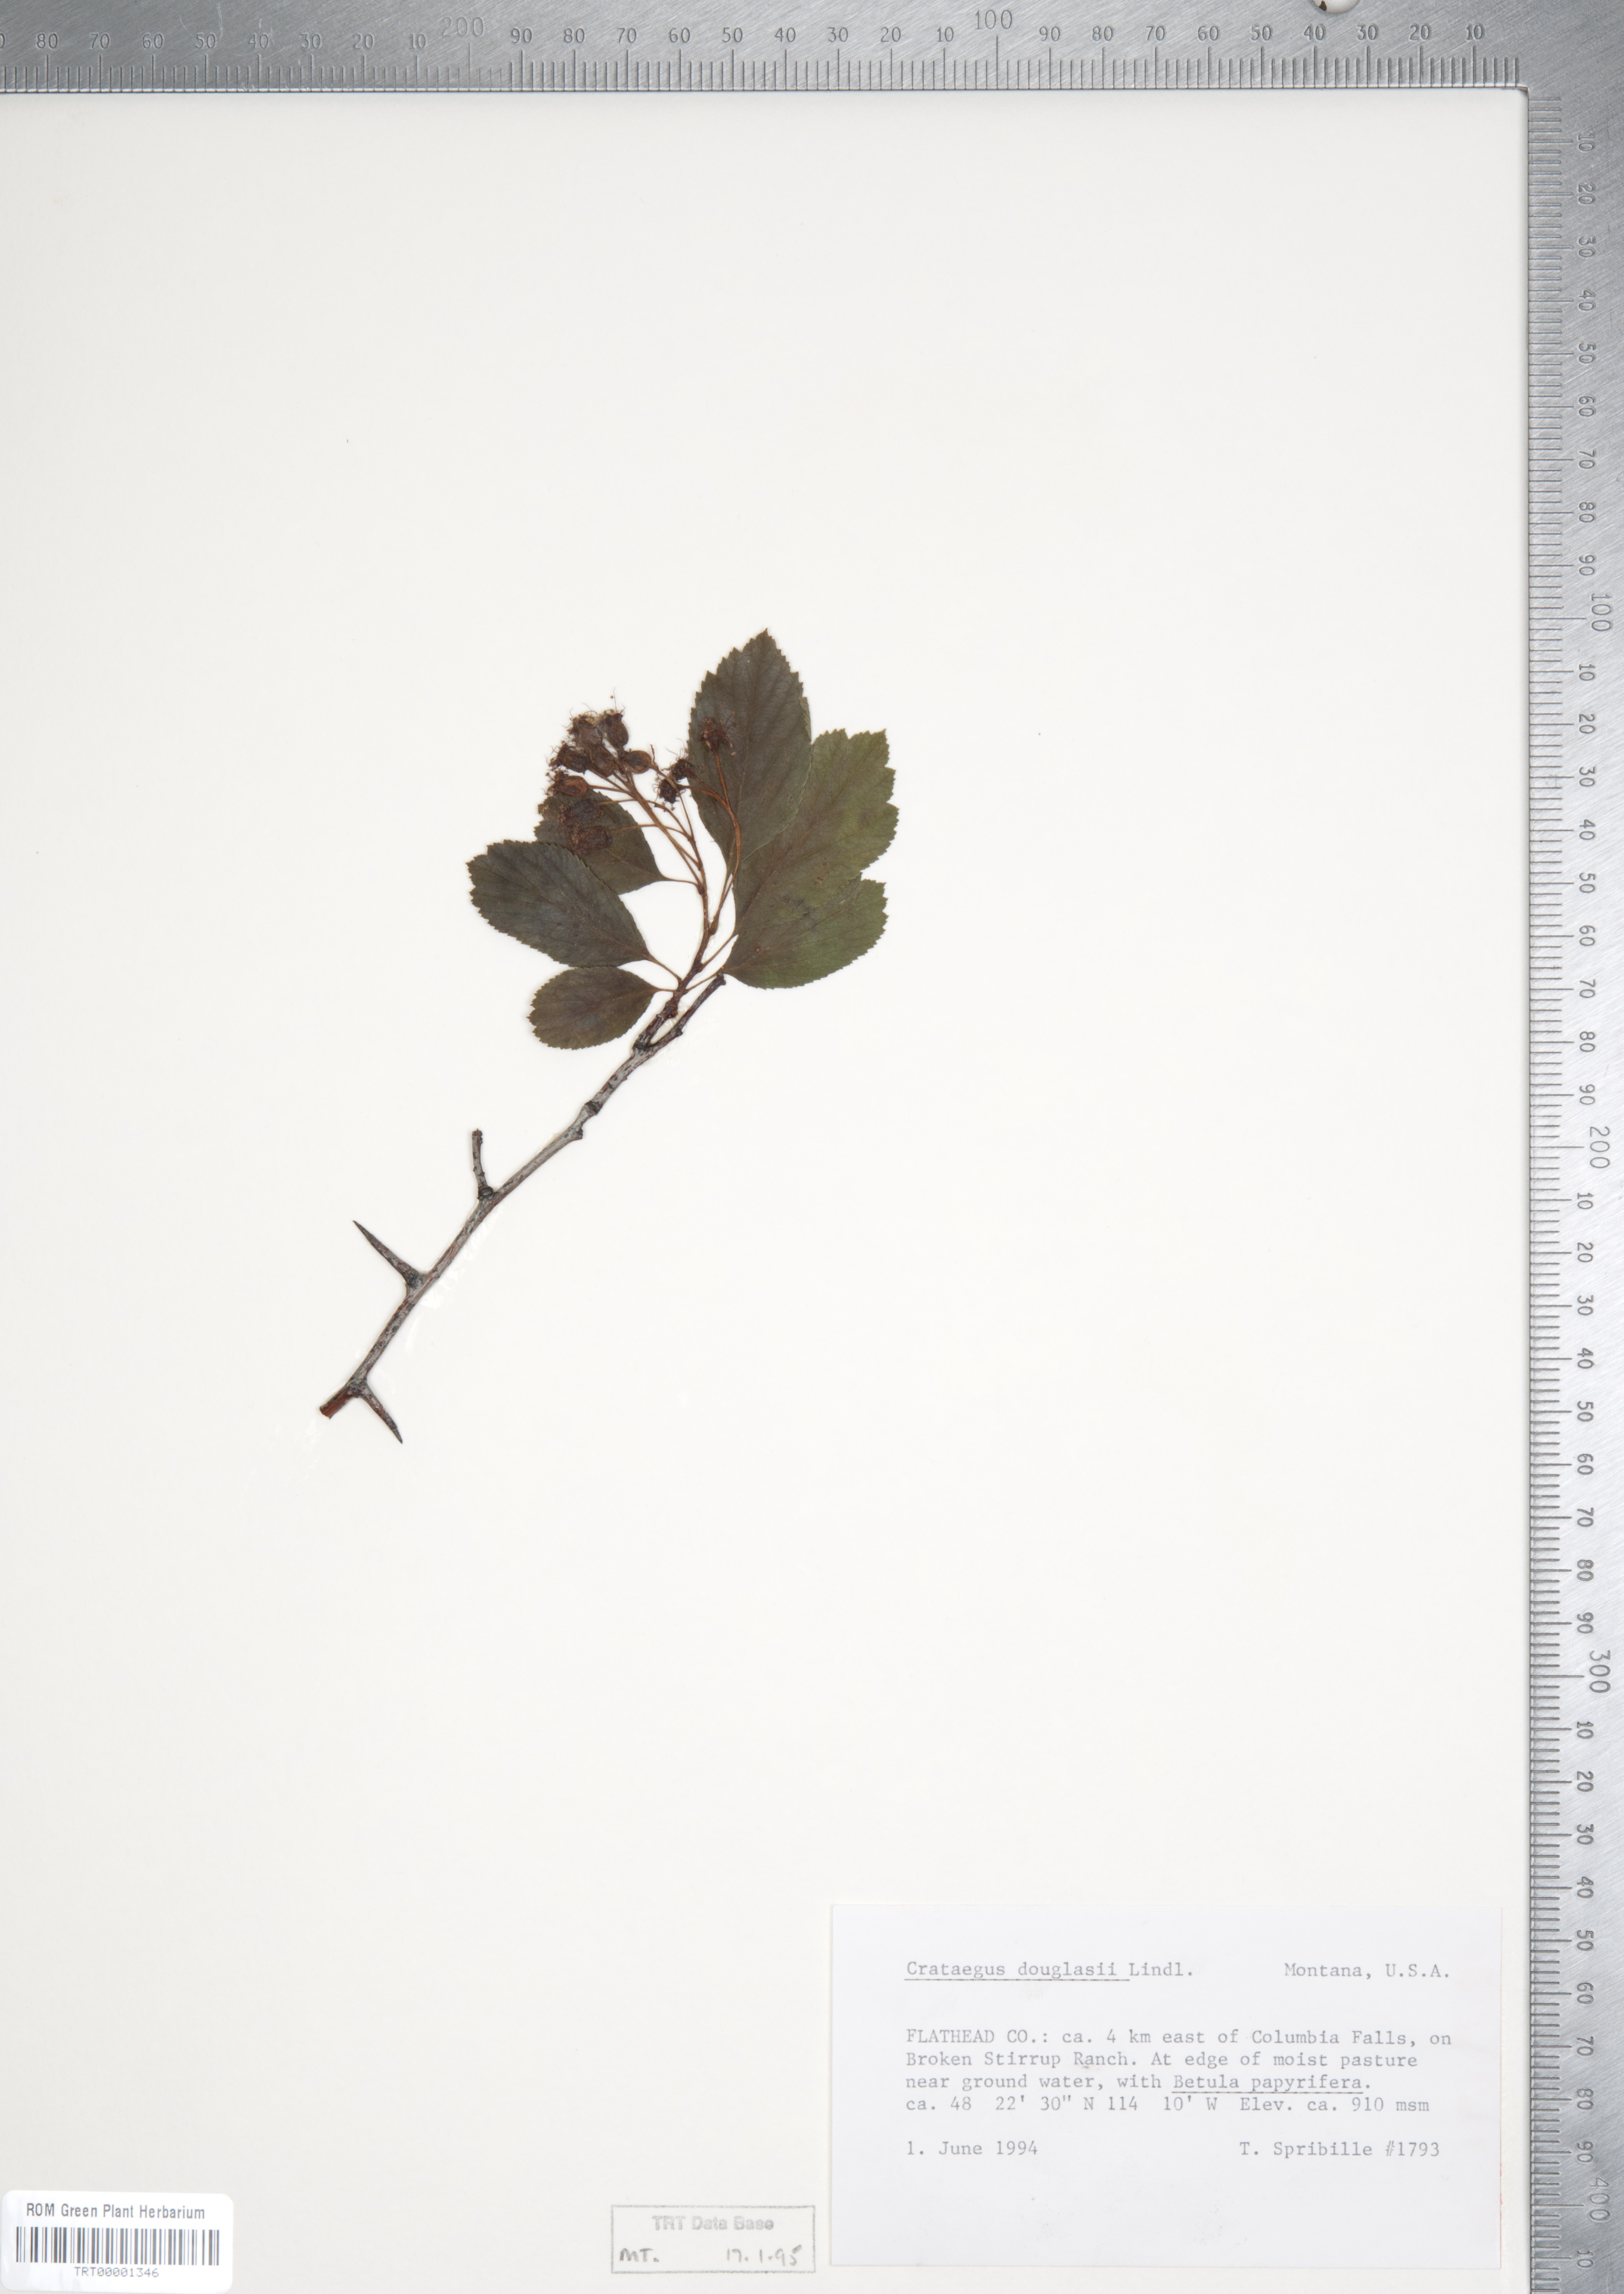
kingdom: Plantae
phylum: Tracheophyta
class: Magnoliopsida
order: Rosales
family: Rosaceae
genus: Crataegus
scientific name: Crataegus douglasii
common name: Black hawthorn
